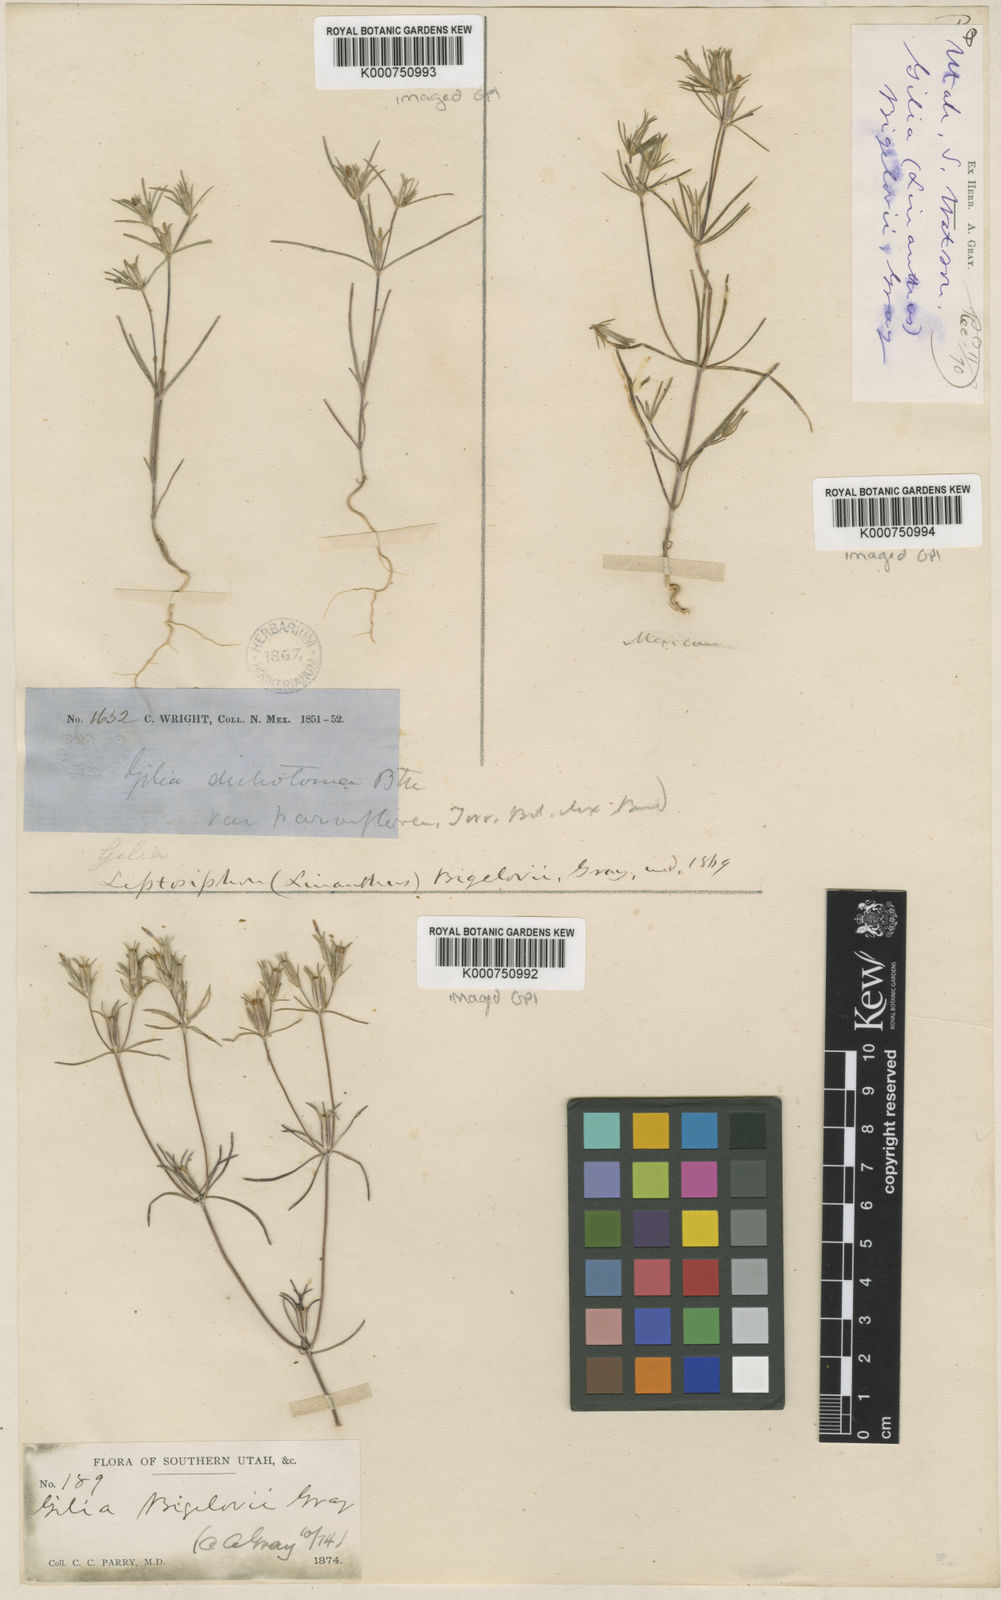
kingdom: Plantae
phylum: Tracheophyta
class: Magnoliopsida
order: Ericales
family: Polemoniaceae
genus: Linanthus
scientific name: Linanthus bigelovii
